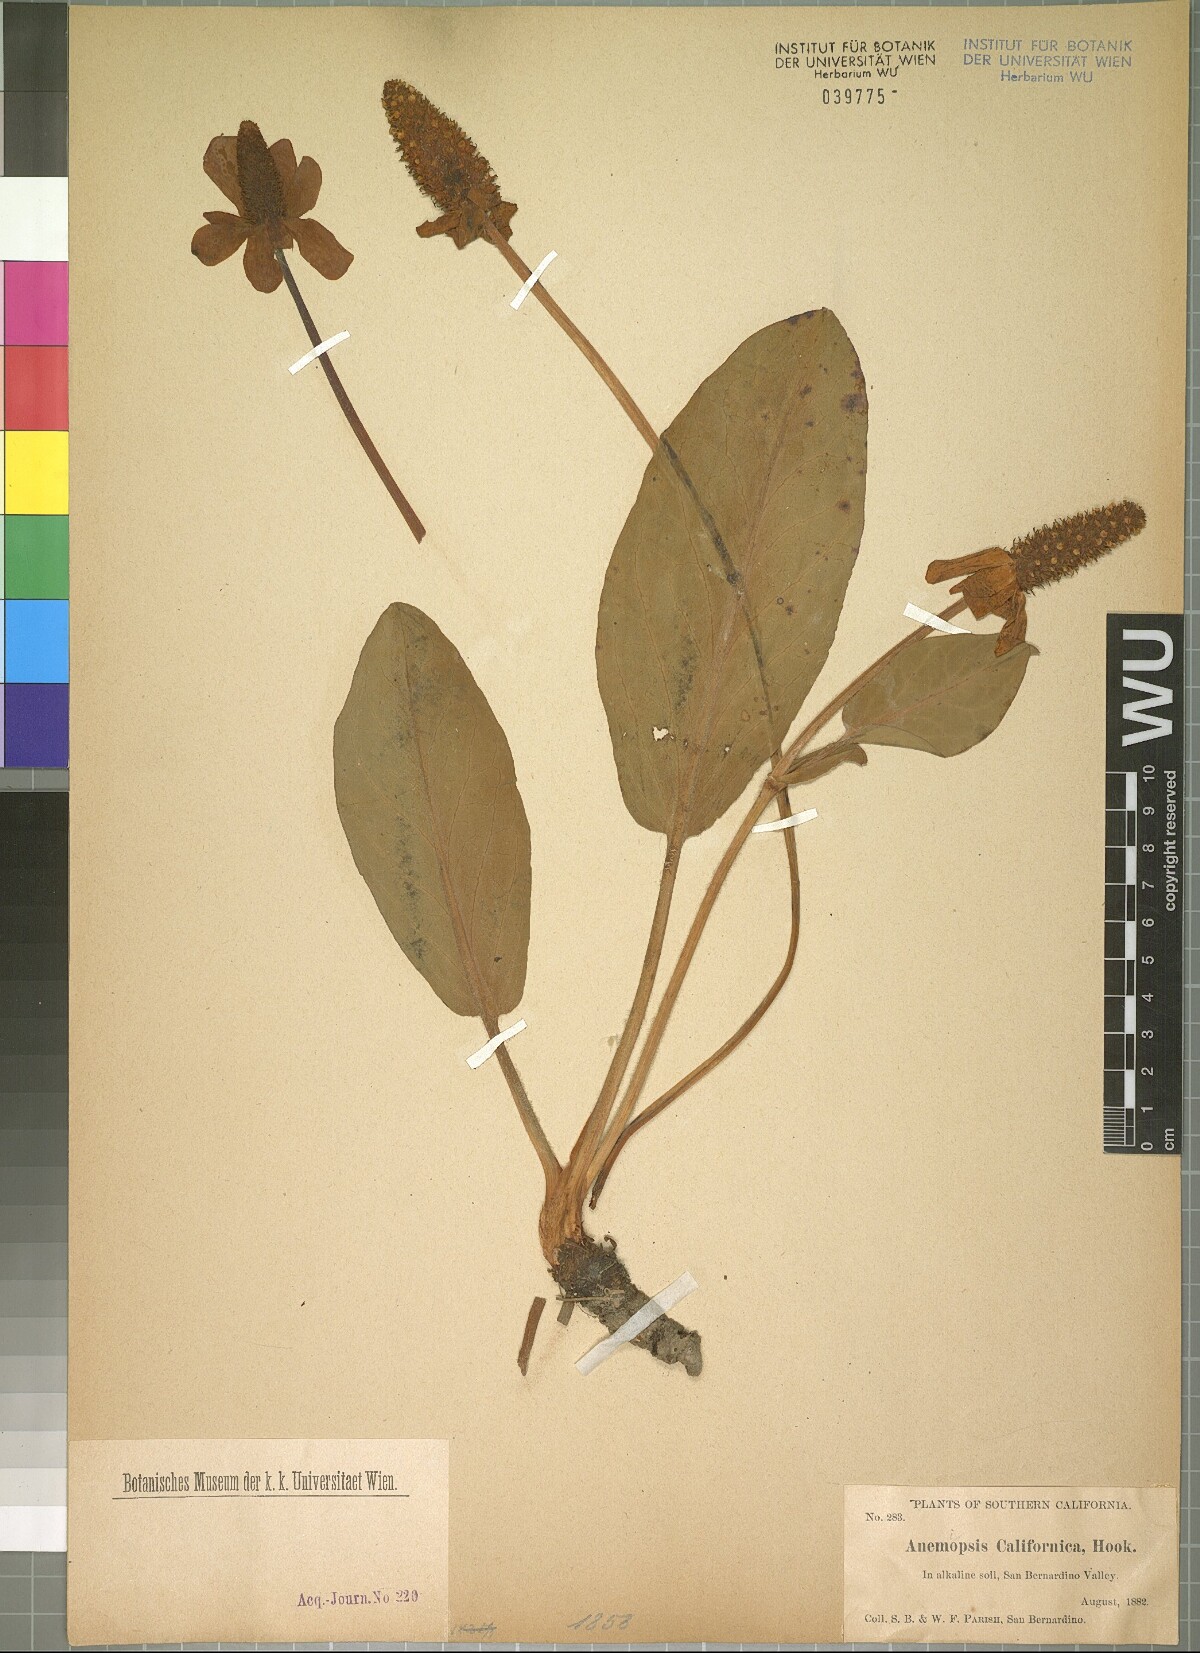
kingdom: Plantae
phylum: Tracheophyta
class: Magnoliopsida
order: Piperales
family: Saururaceae
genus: Anemopsis
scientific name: Anemopsis californica
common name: Apache-beads
